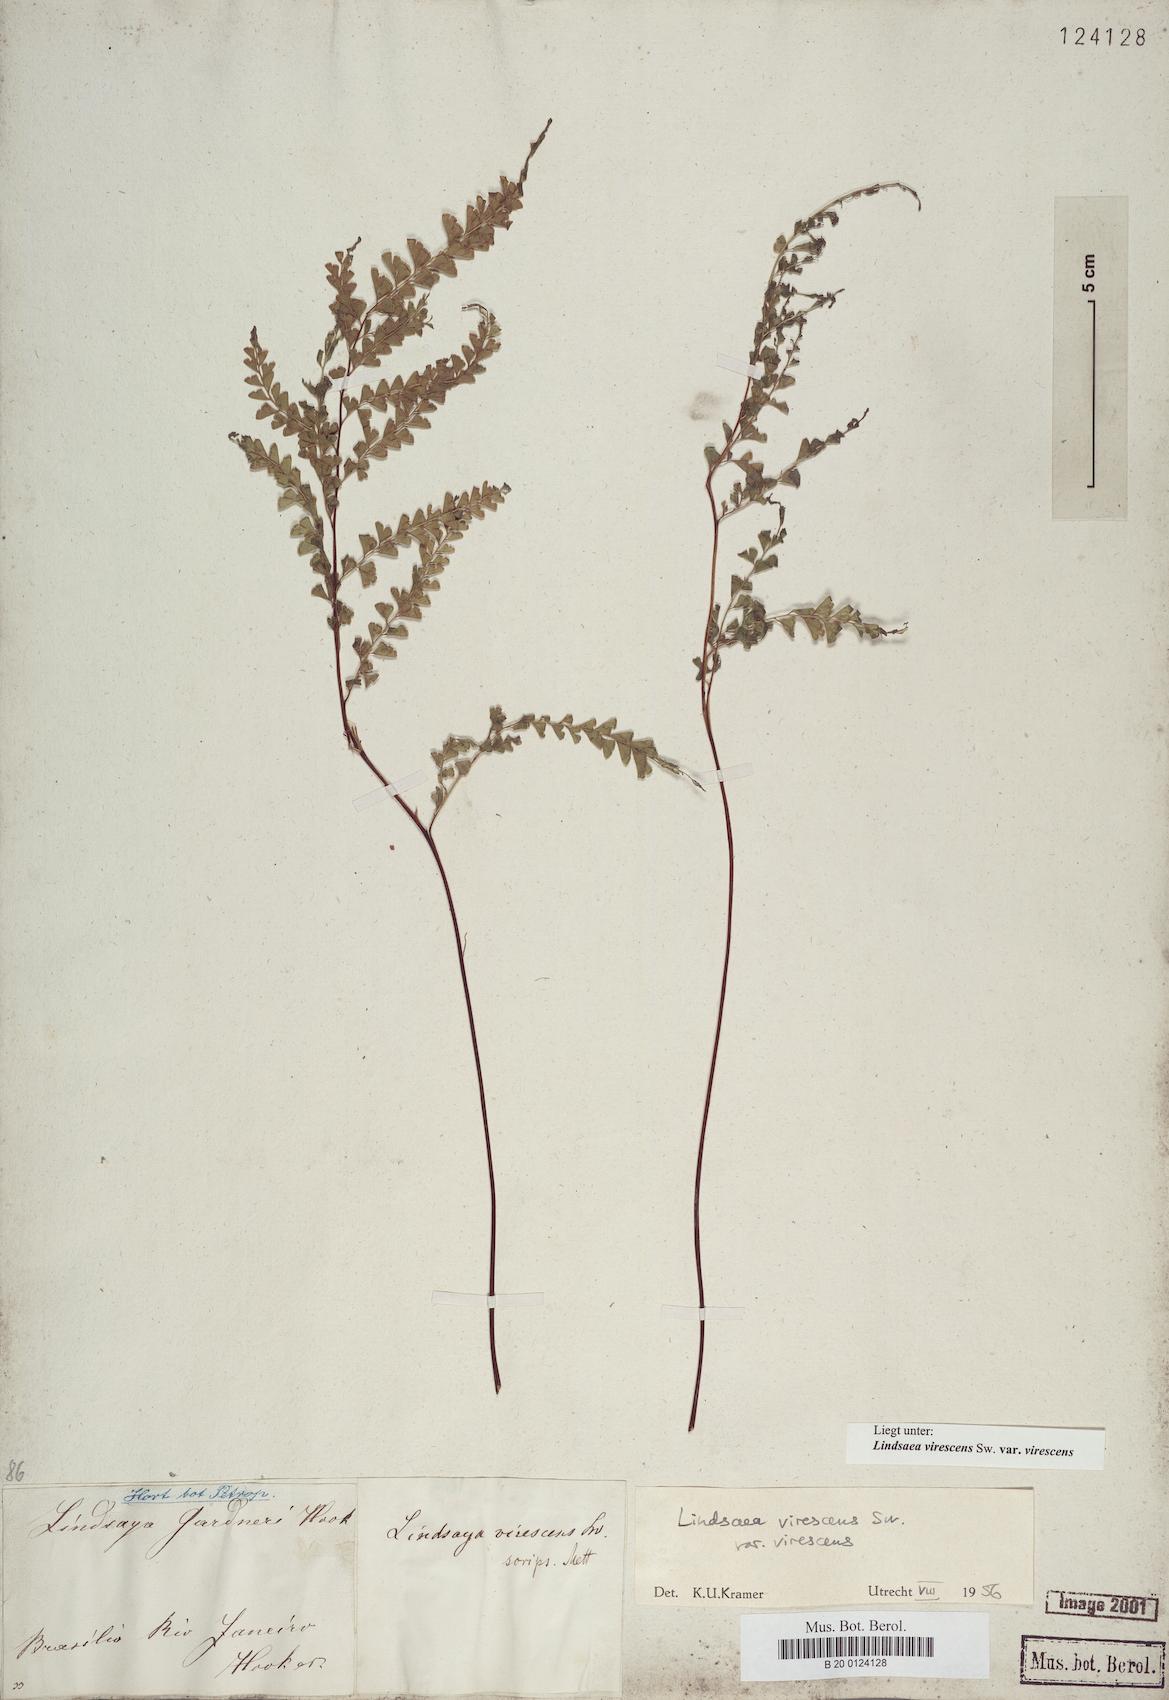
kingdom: Plantae
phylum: Tracheophyta
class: Polypodiopsida
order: Polypodiales
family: Lindsaeaceae
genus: Lindsaea
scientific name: Lindsaea virescens
